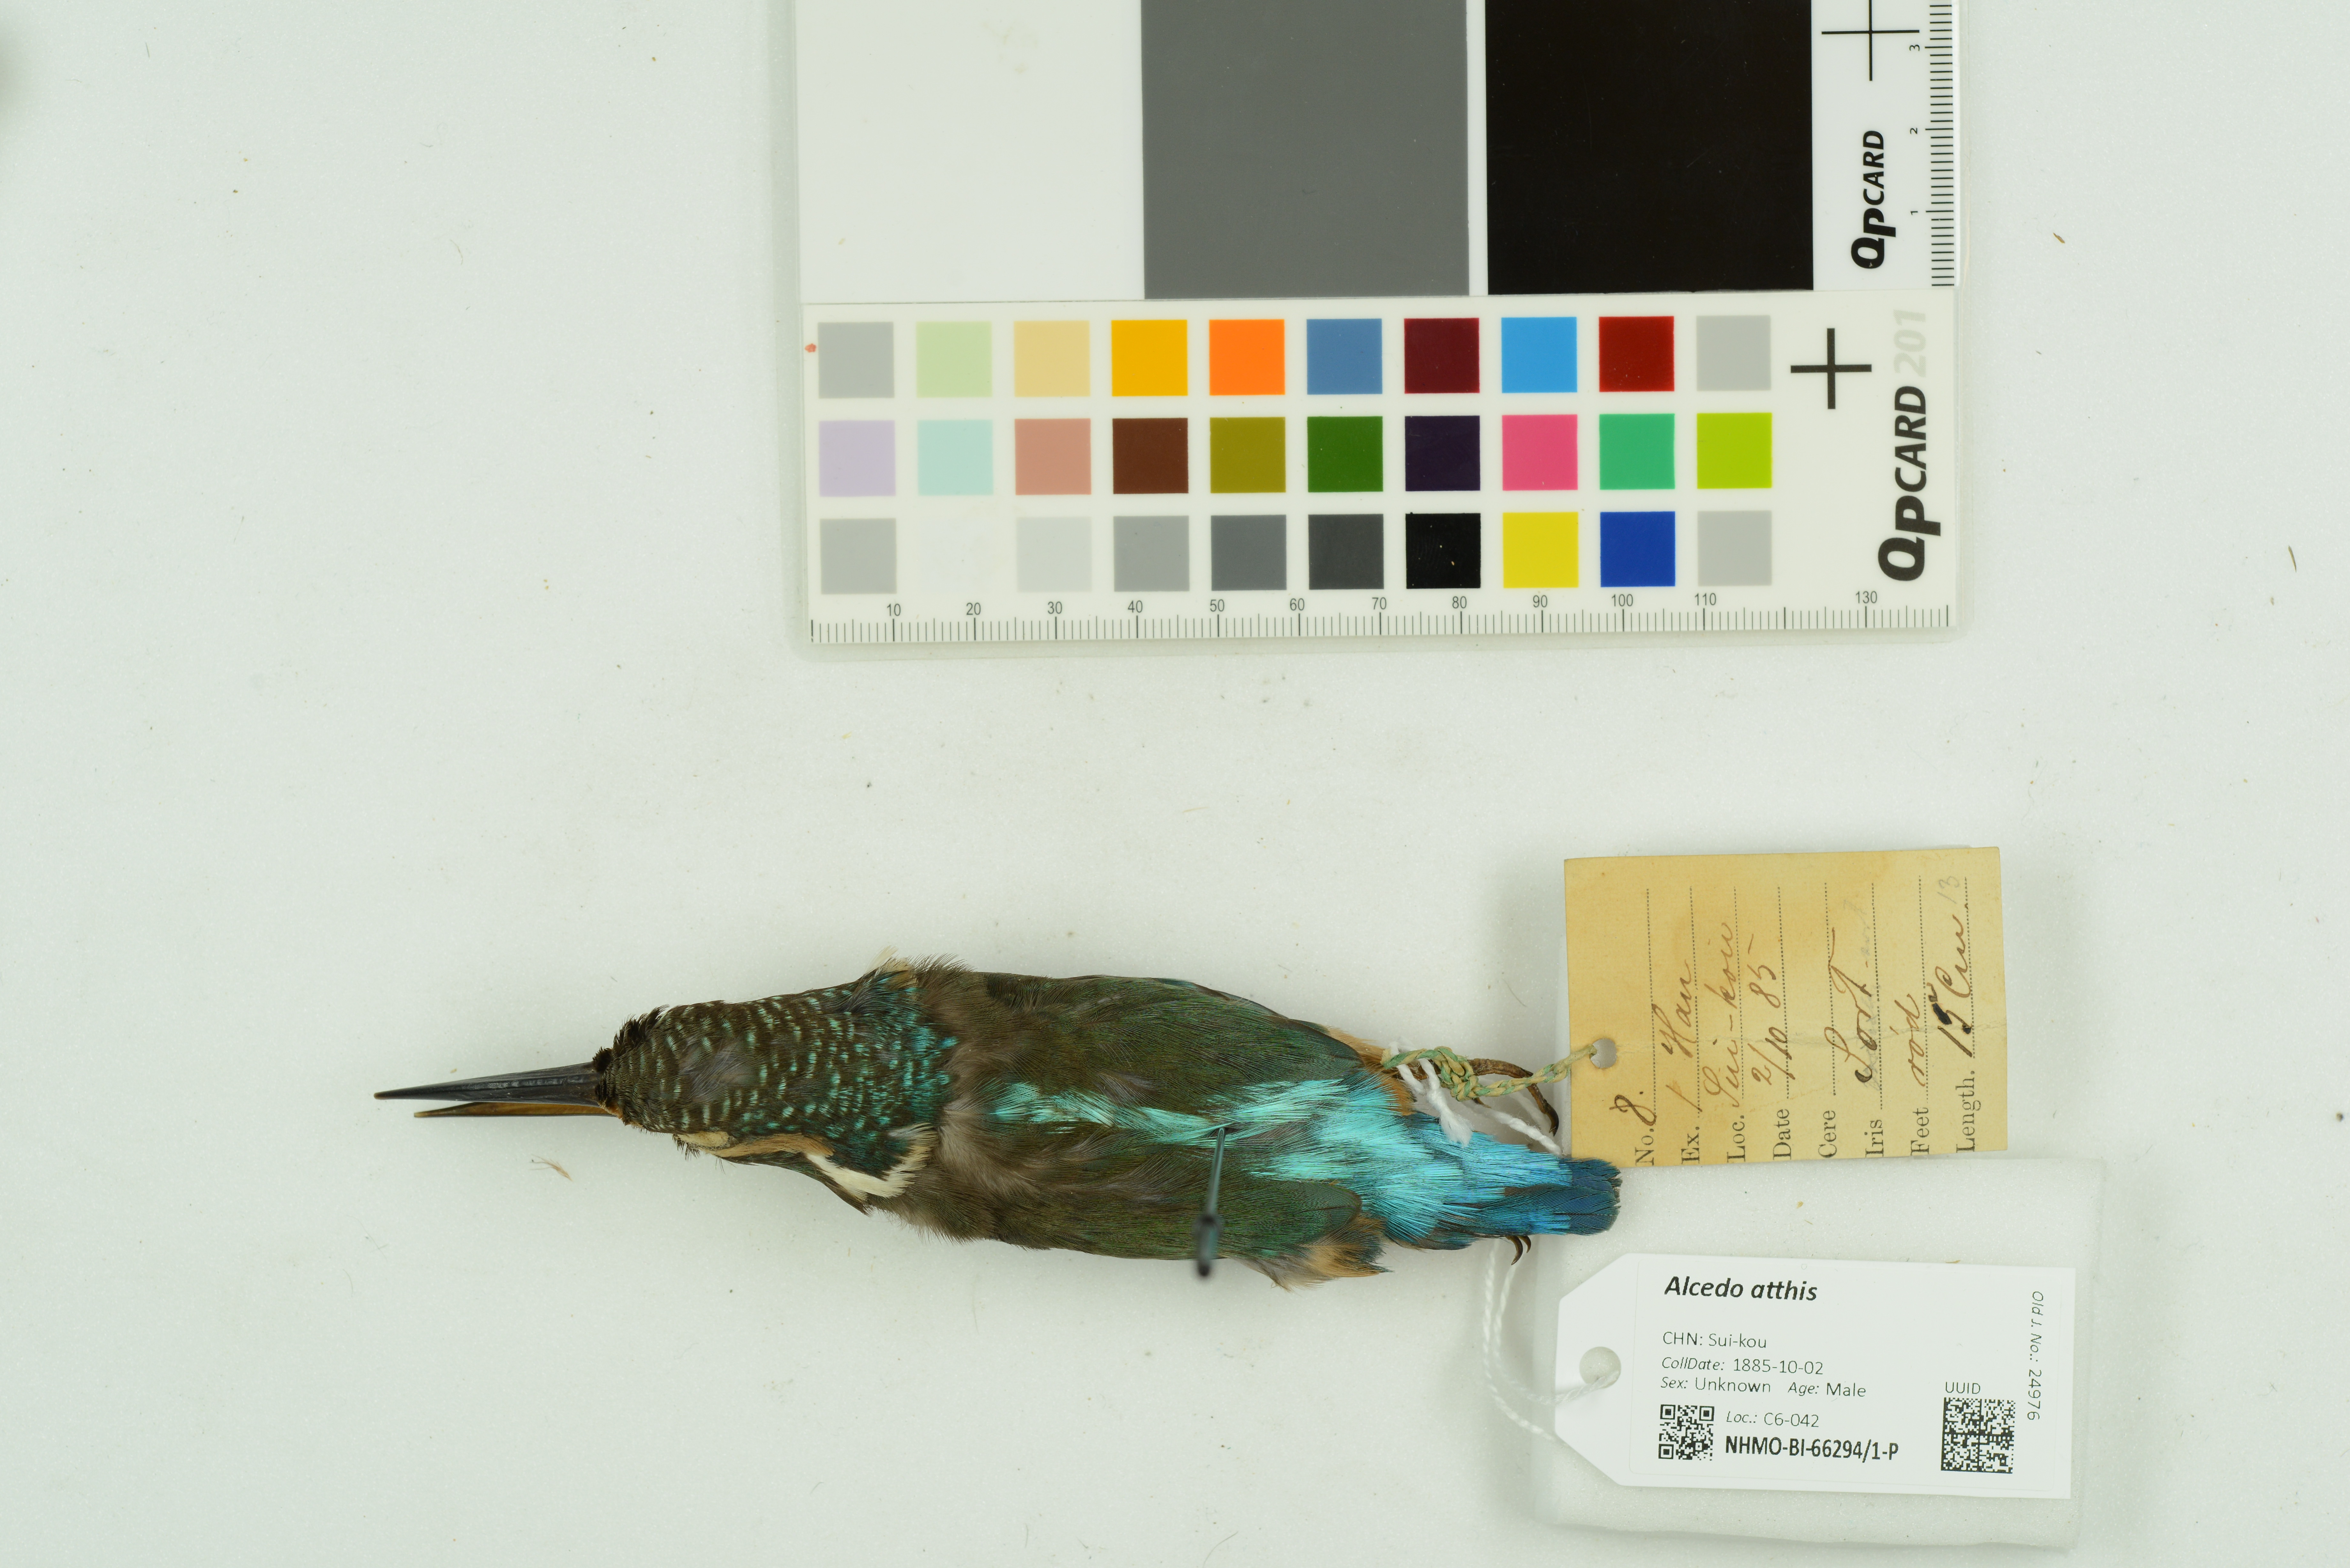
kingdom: Animalia
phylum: Chordata
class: Aves
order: Coraciiformes
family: Alcedinidae
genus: Alcedo
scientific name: Alcedo atthis
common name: Common kingfisher
